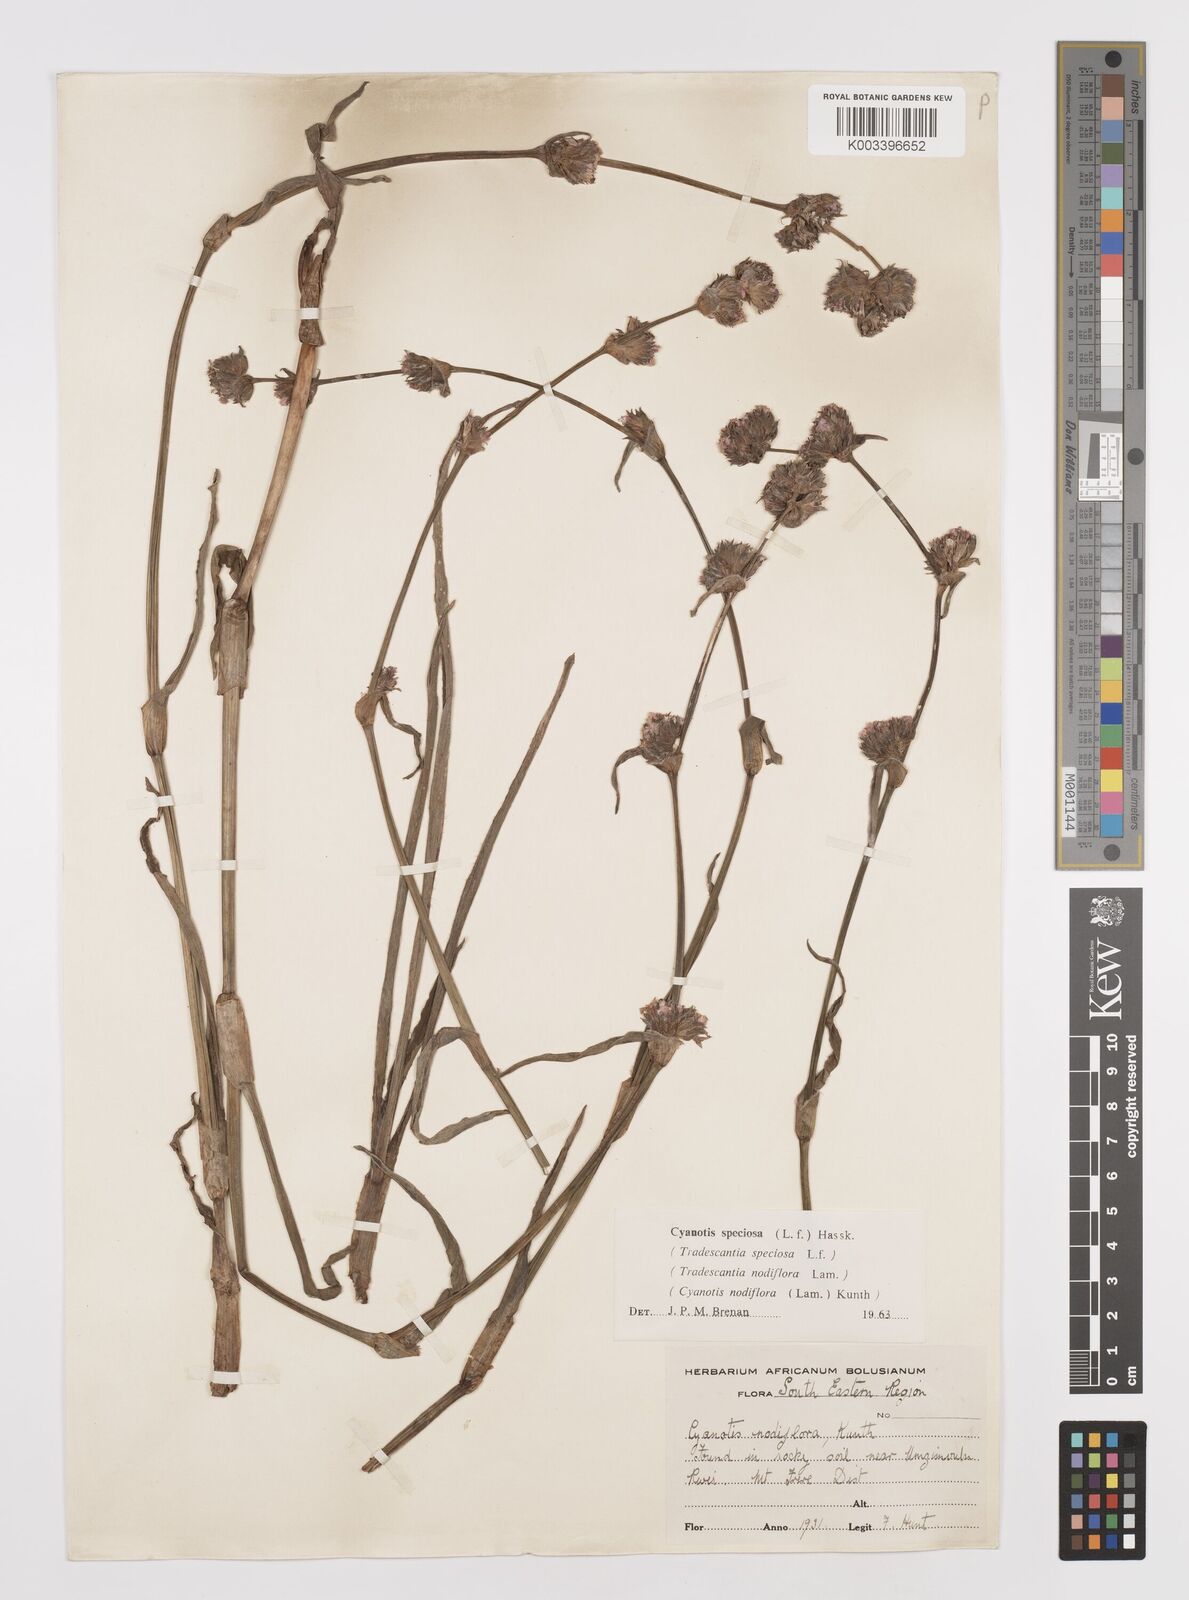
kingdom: Plantae
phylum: Tracheophyta
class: Liliopsida
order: Commelinales
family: Commelinaceae
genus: Cyanotis
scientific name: Cyanotis speciosa
